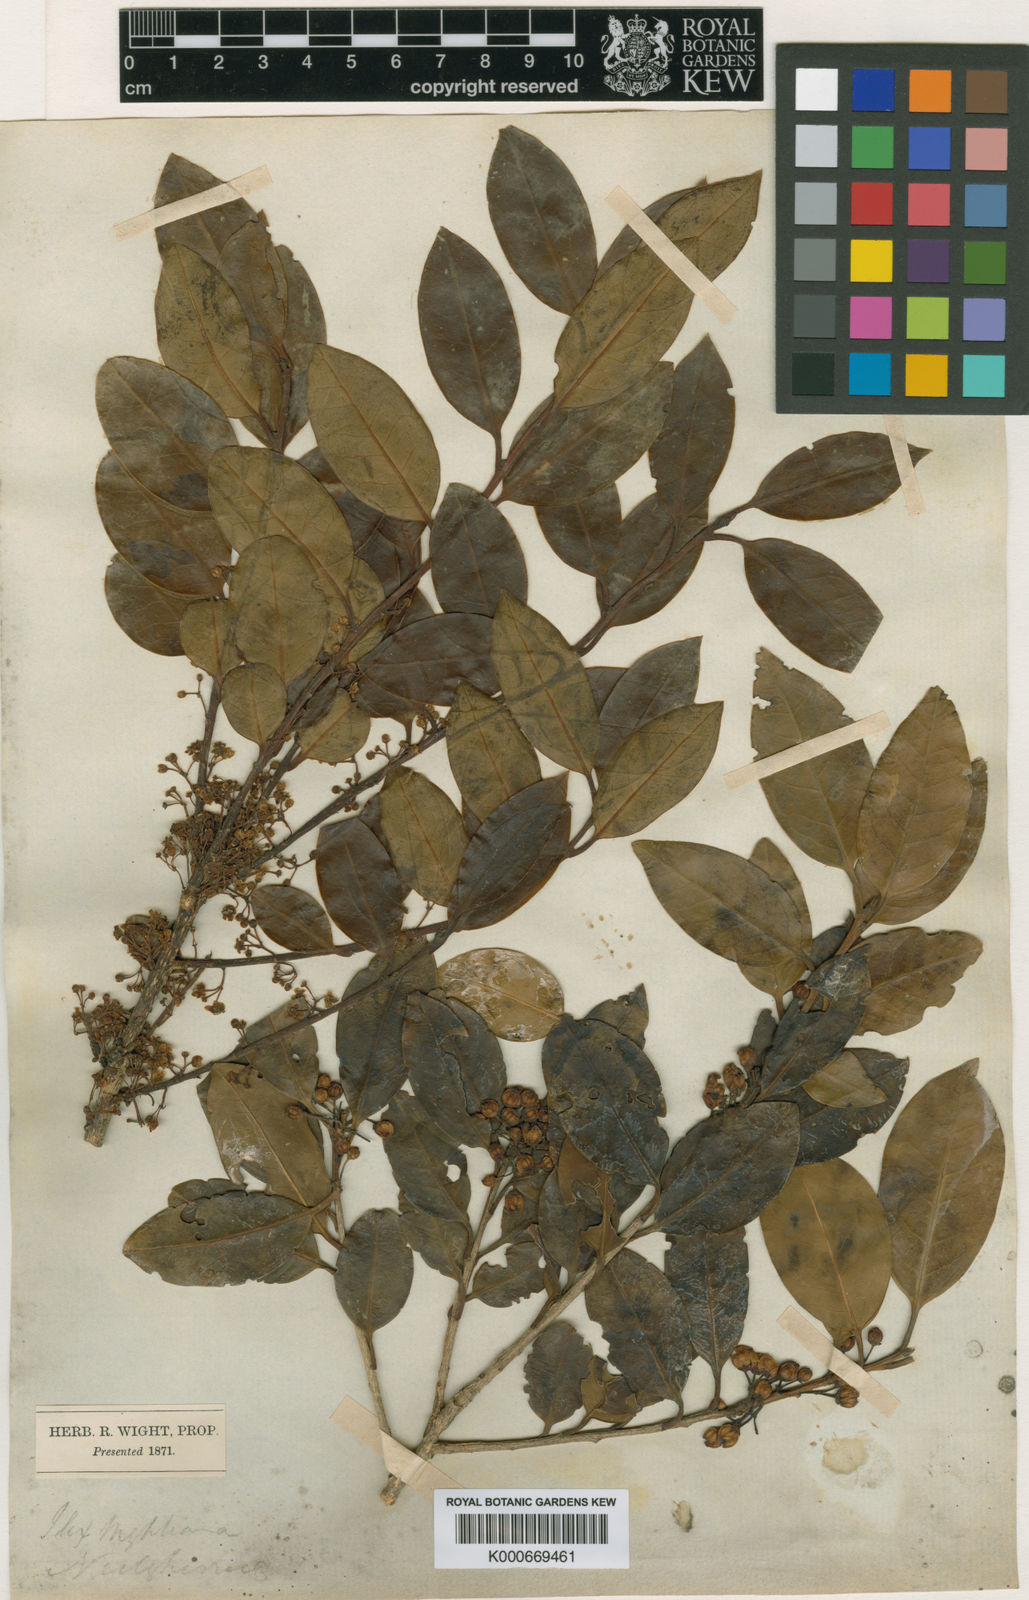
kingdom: Plantae
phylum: Tracheophyta
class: Magnoliopsida
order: Aquifoliales
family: Aquifoliaceae
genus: Ilex
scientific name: Ilex
